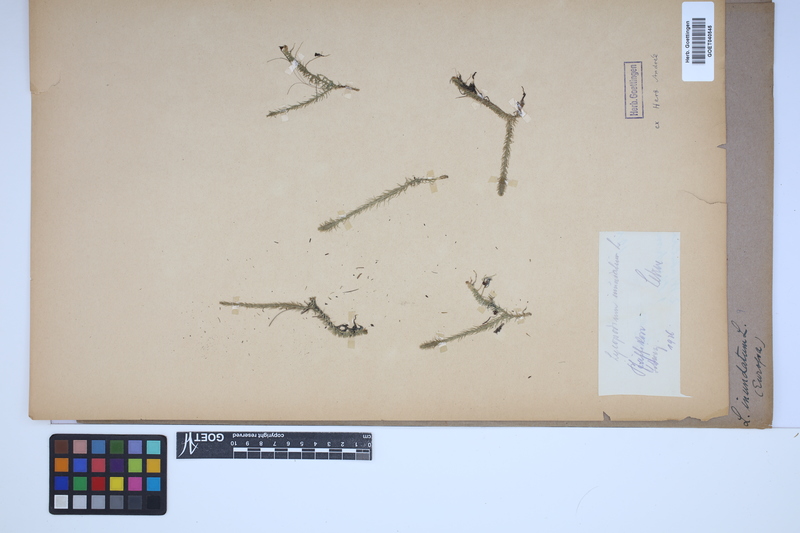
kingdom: Plantae
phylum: Tracheophyta
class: Lycopodiopsida
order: Lycopodiales
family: Lycopodiaceae
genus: Lycopodiella
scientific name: Lycopodiella inundata
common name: Marsh clubmoss
